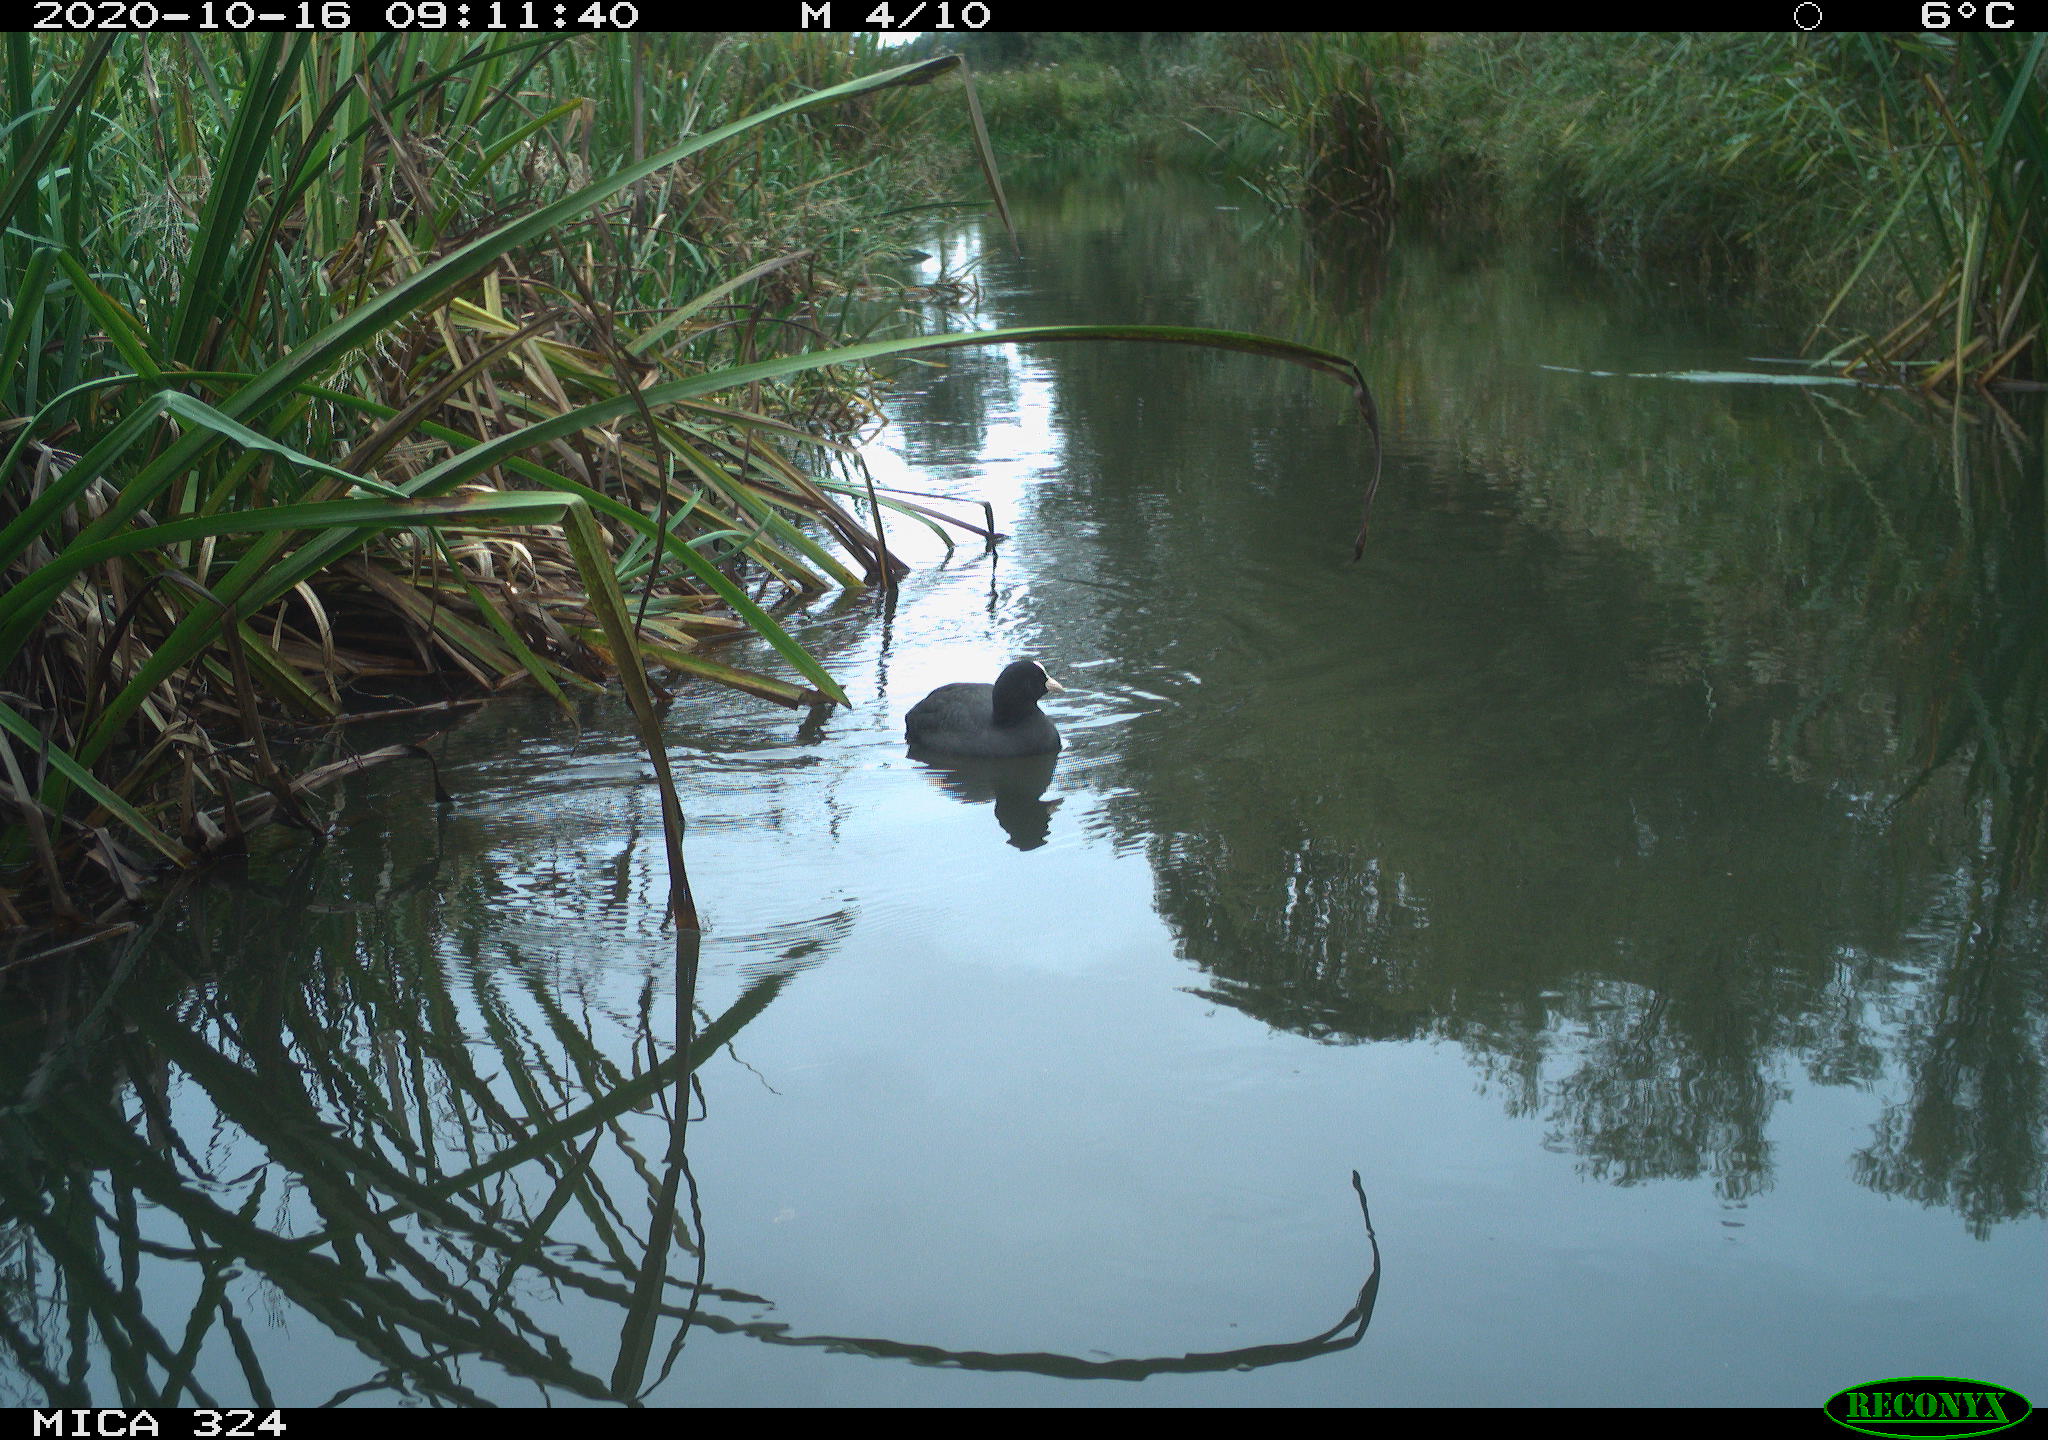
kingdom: Animalia
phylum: Chordata
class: Aves
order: Gruiformes
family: Rallidae
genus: Fulica
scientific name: Fulica atra
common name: Eurasian coot
